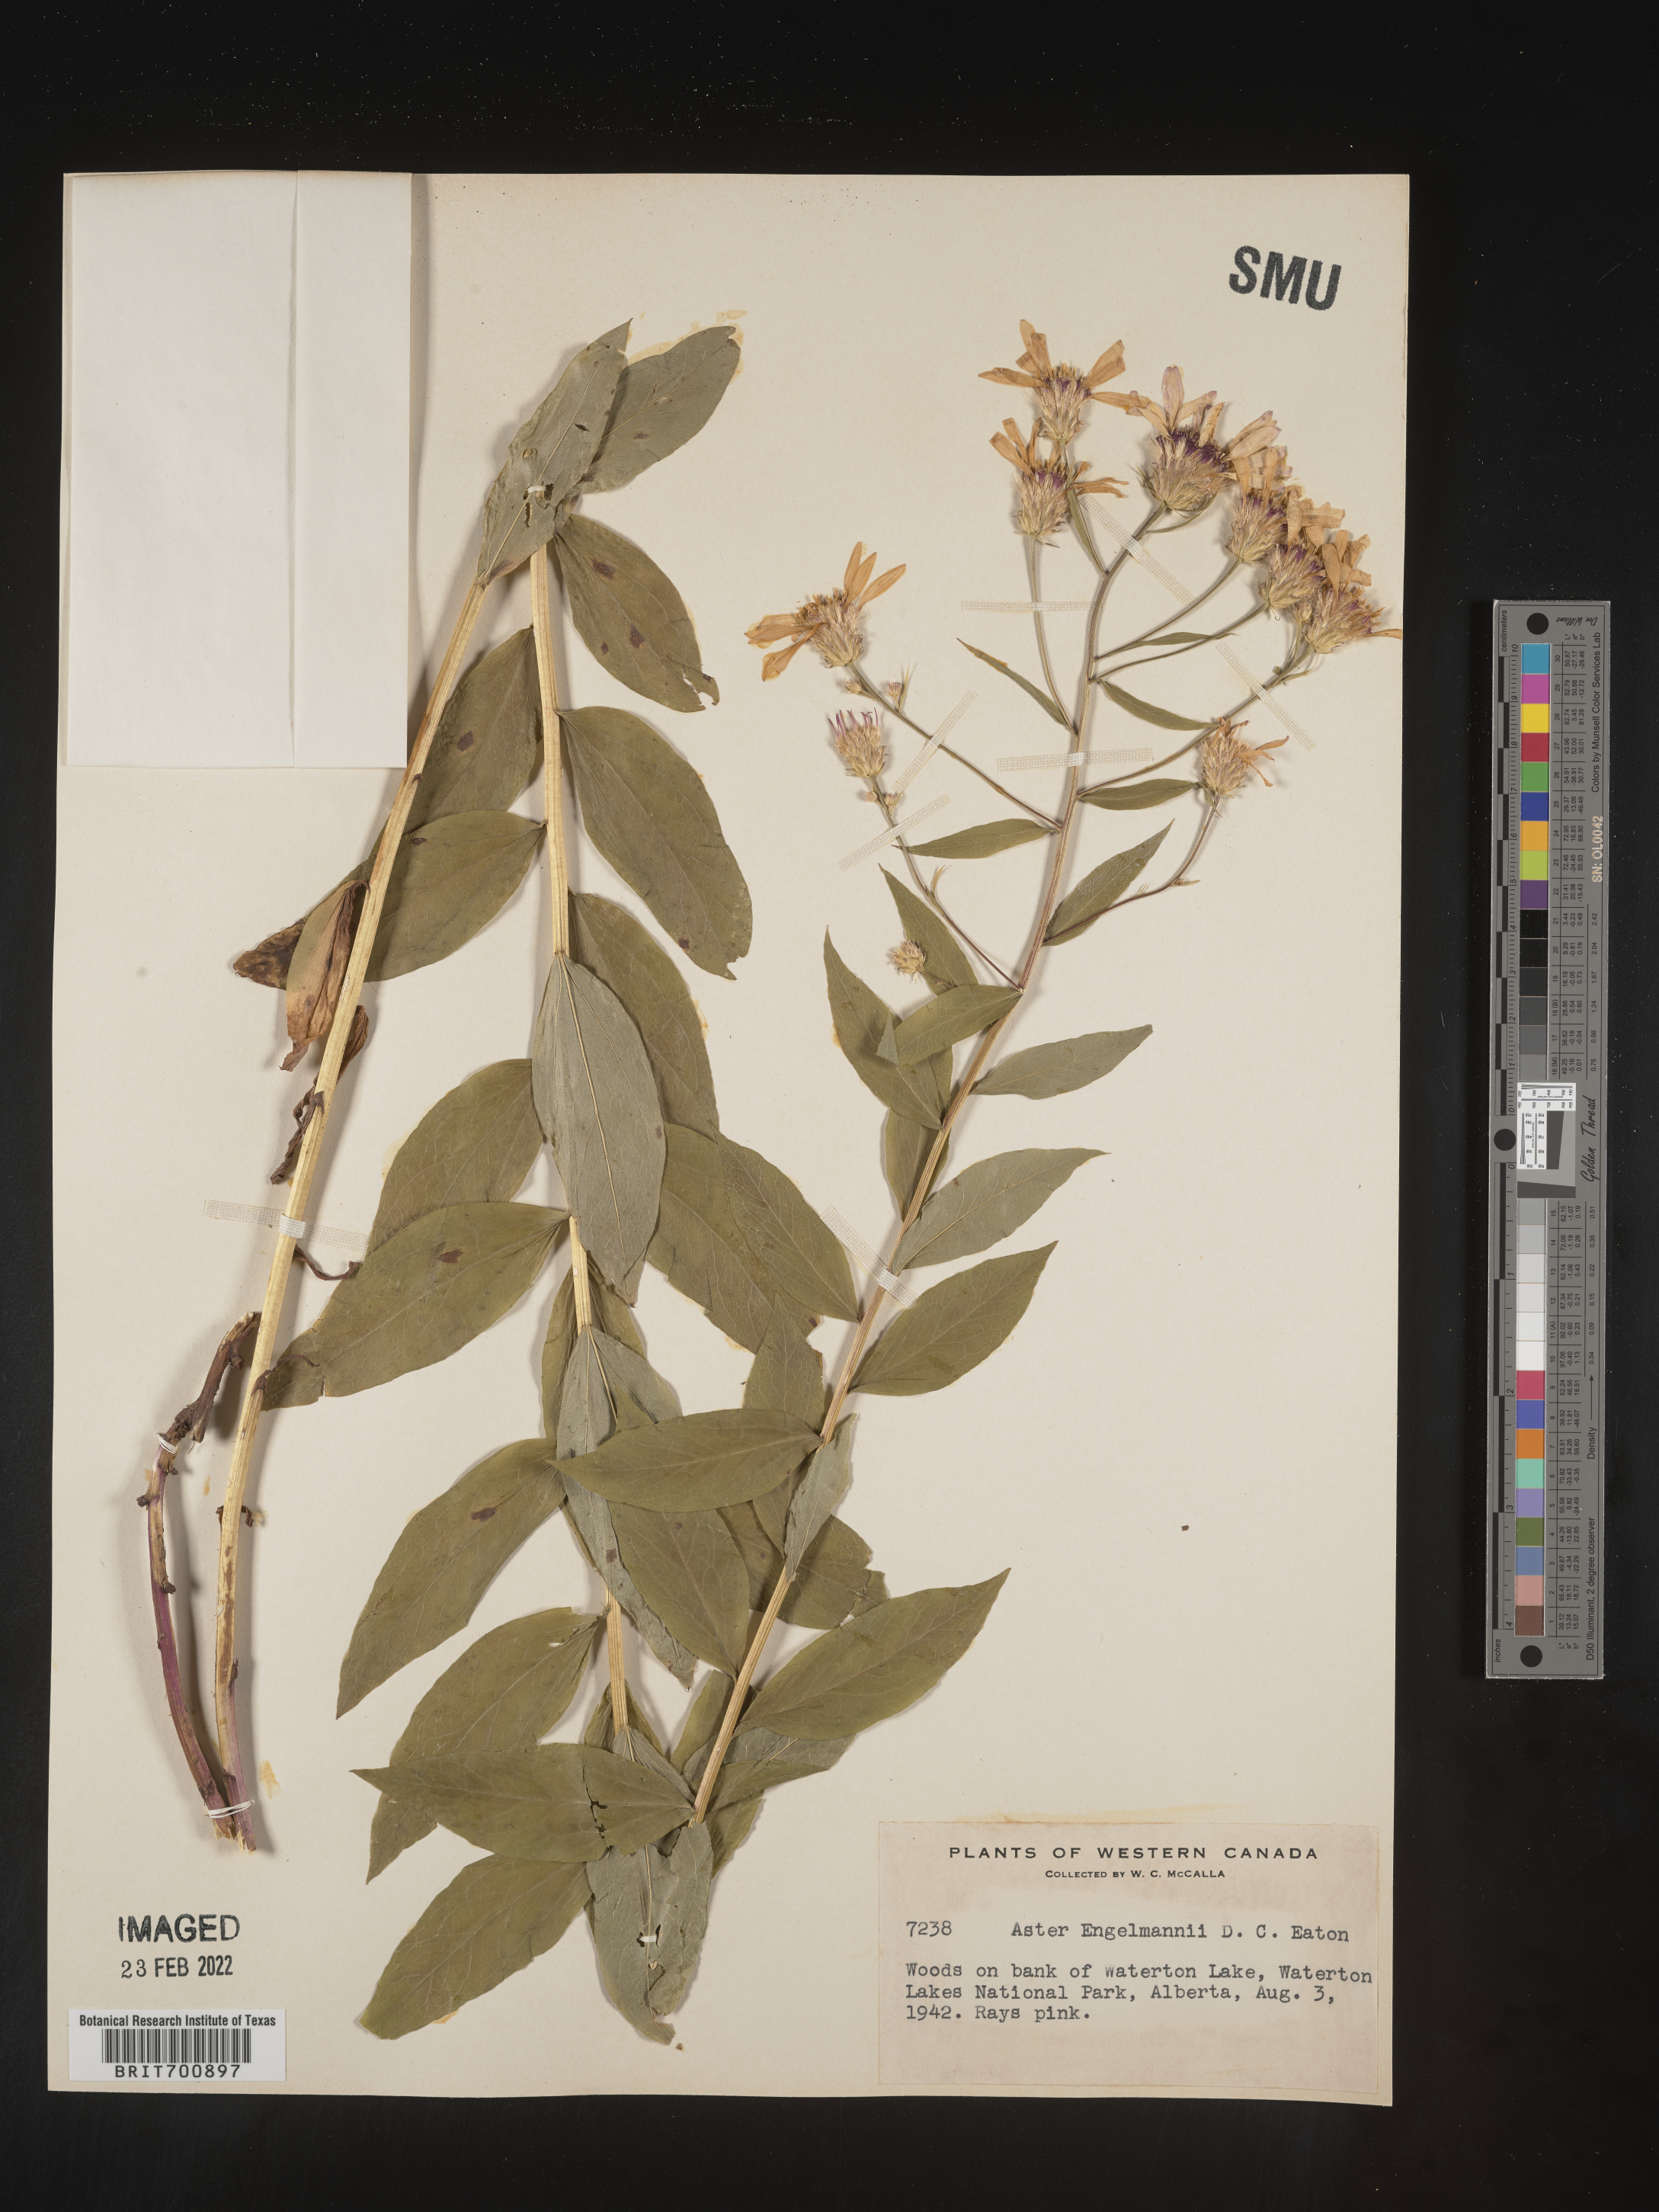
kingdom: Plantae
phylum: Tracheophyta
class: Magnoliopsida
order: Asterales
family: Asteraceae
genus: Eucephalus
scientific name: Eucephalus engelmannii
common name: Engelmann's aster
